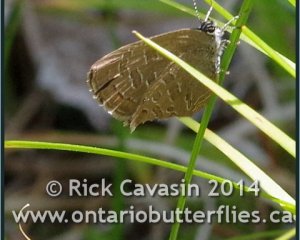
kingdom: Animalia
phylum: Arthropoda
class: Insecta
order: Lepidoptera
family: Lycaenidae
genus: Satyrium
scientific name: Satyrium liparops
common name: Striped Hairstreak
